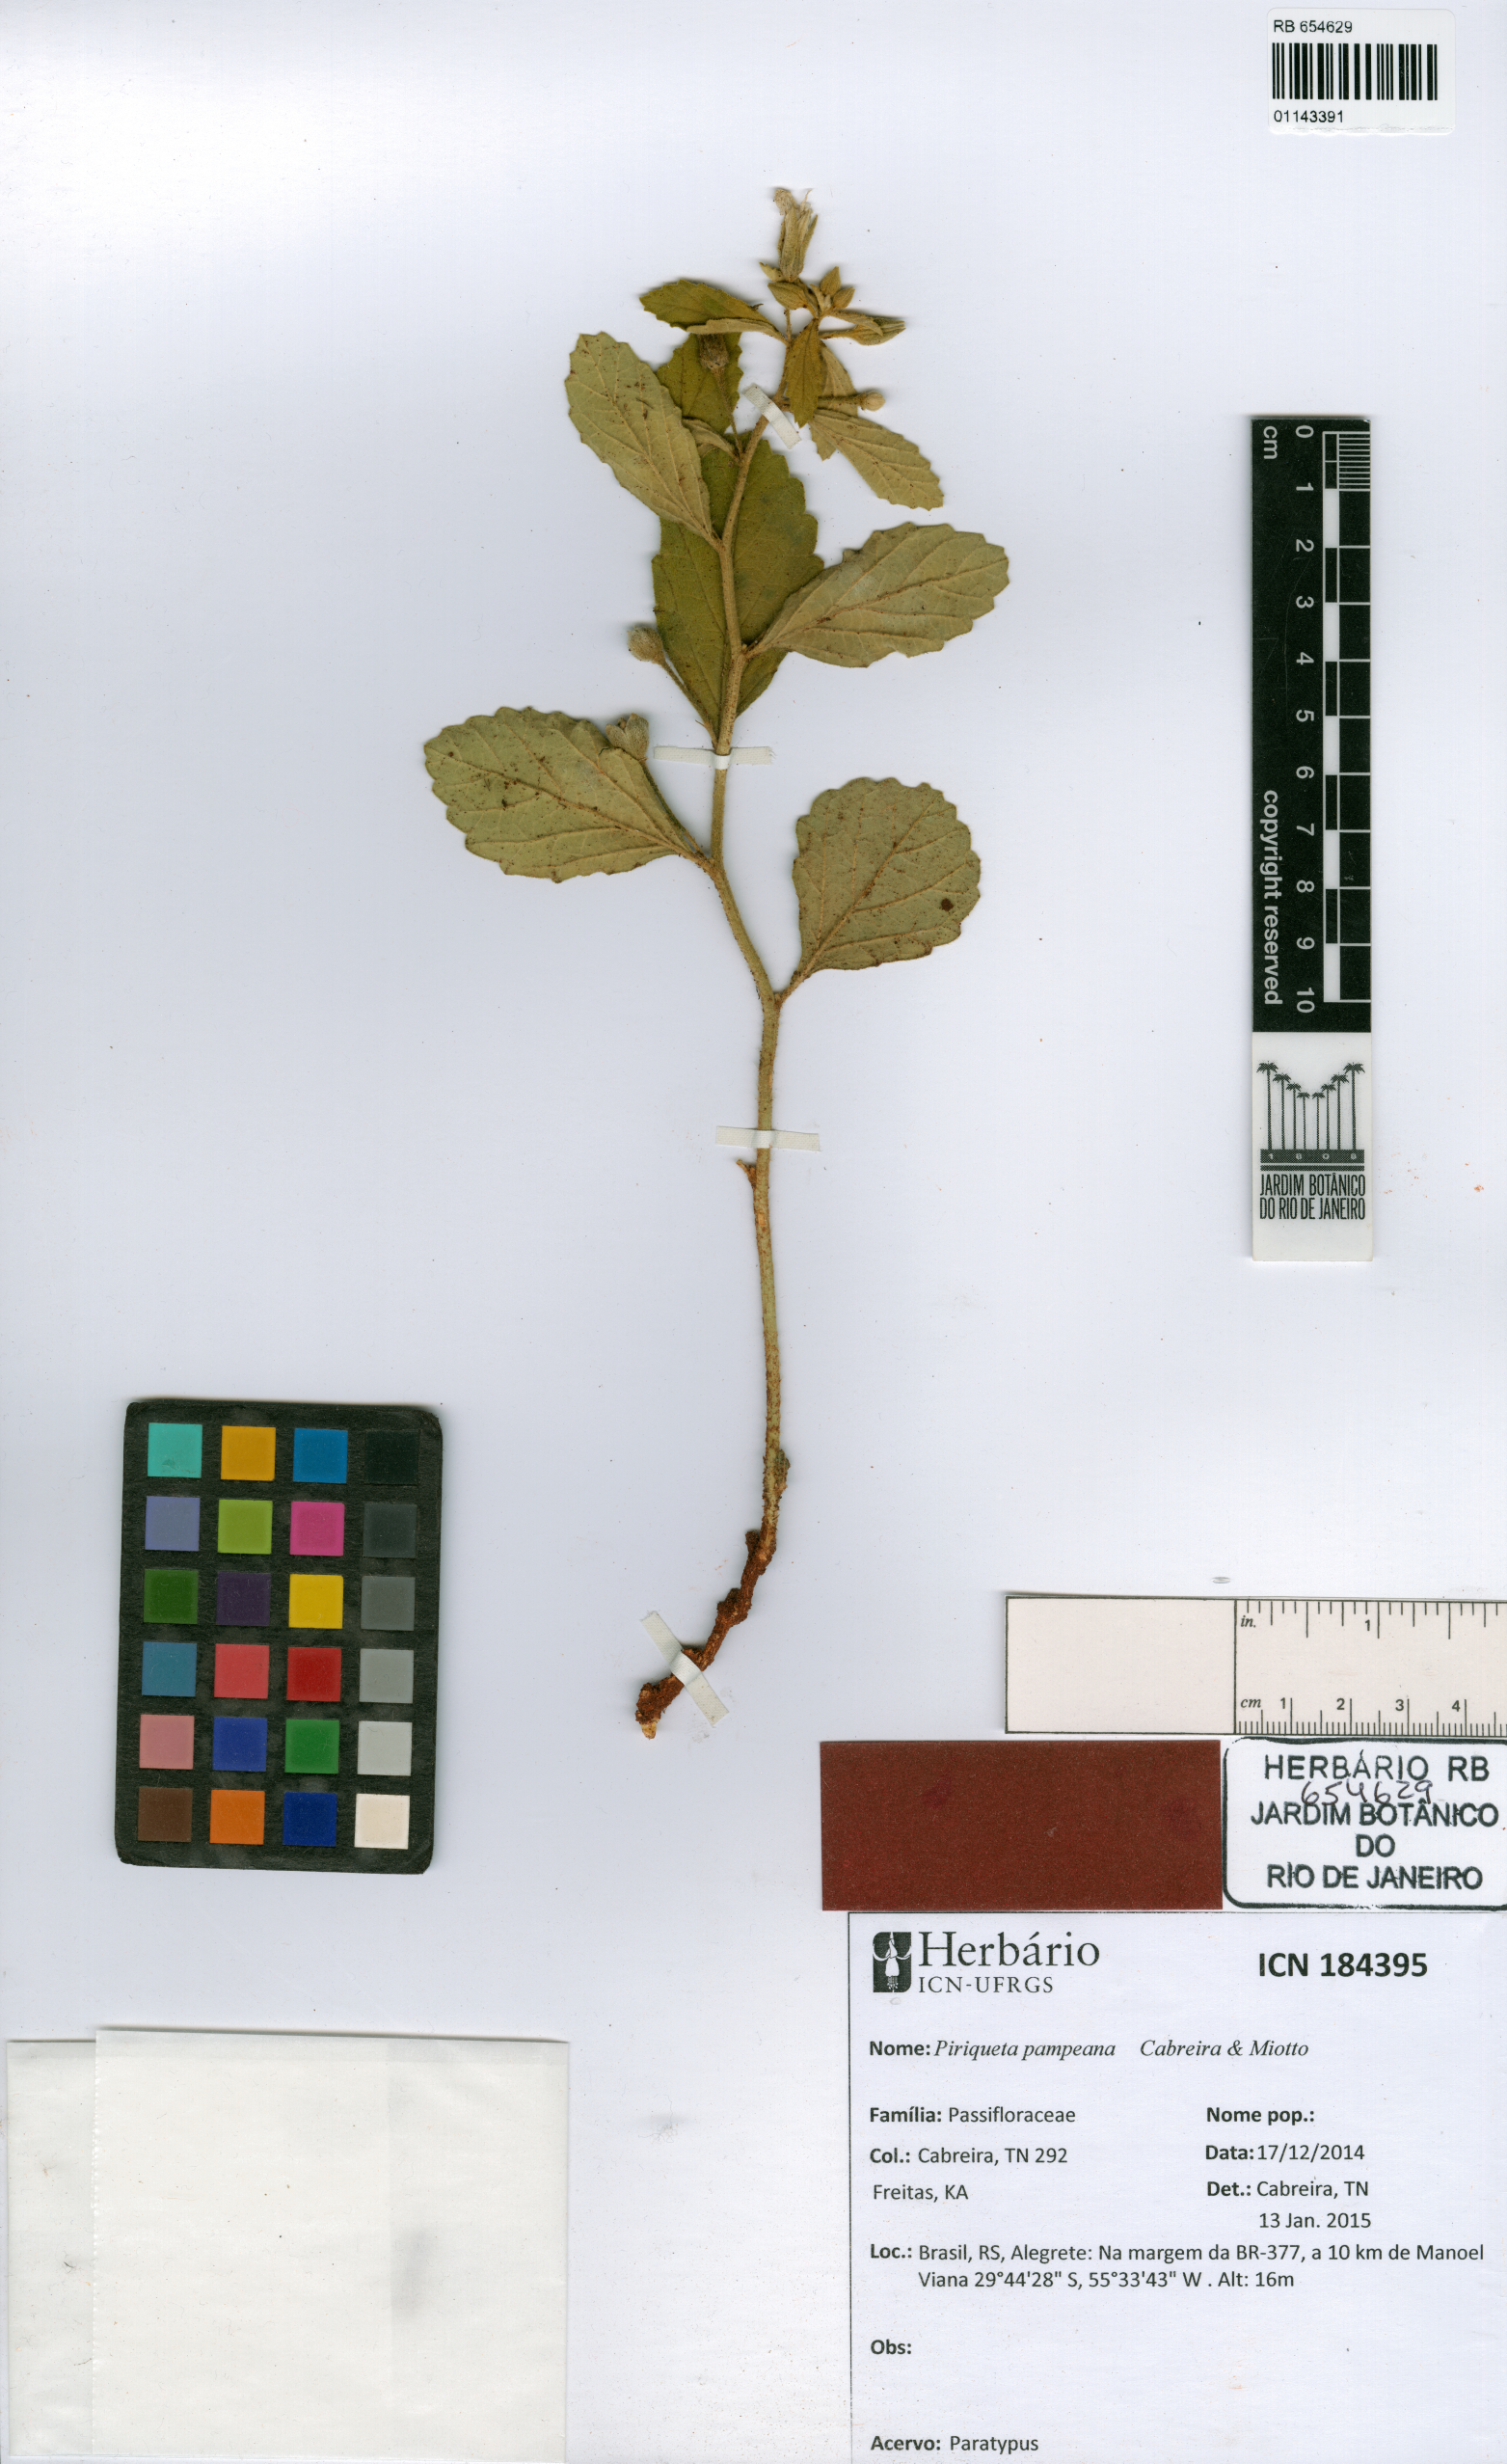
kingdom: Plantae
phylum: Tracheophyta
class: Magnoliopsida
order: Malpighiales
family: Turneraceae
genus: Piriqueta
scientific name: Piriqueta pampeana
